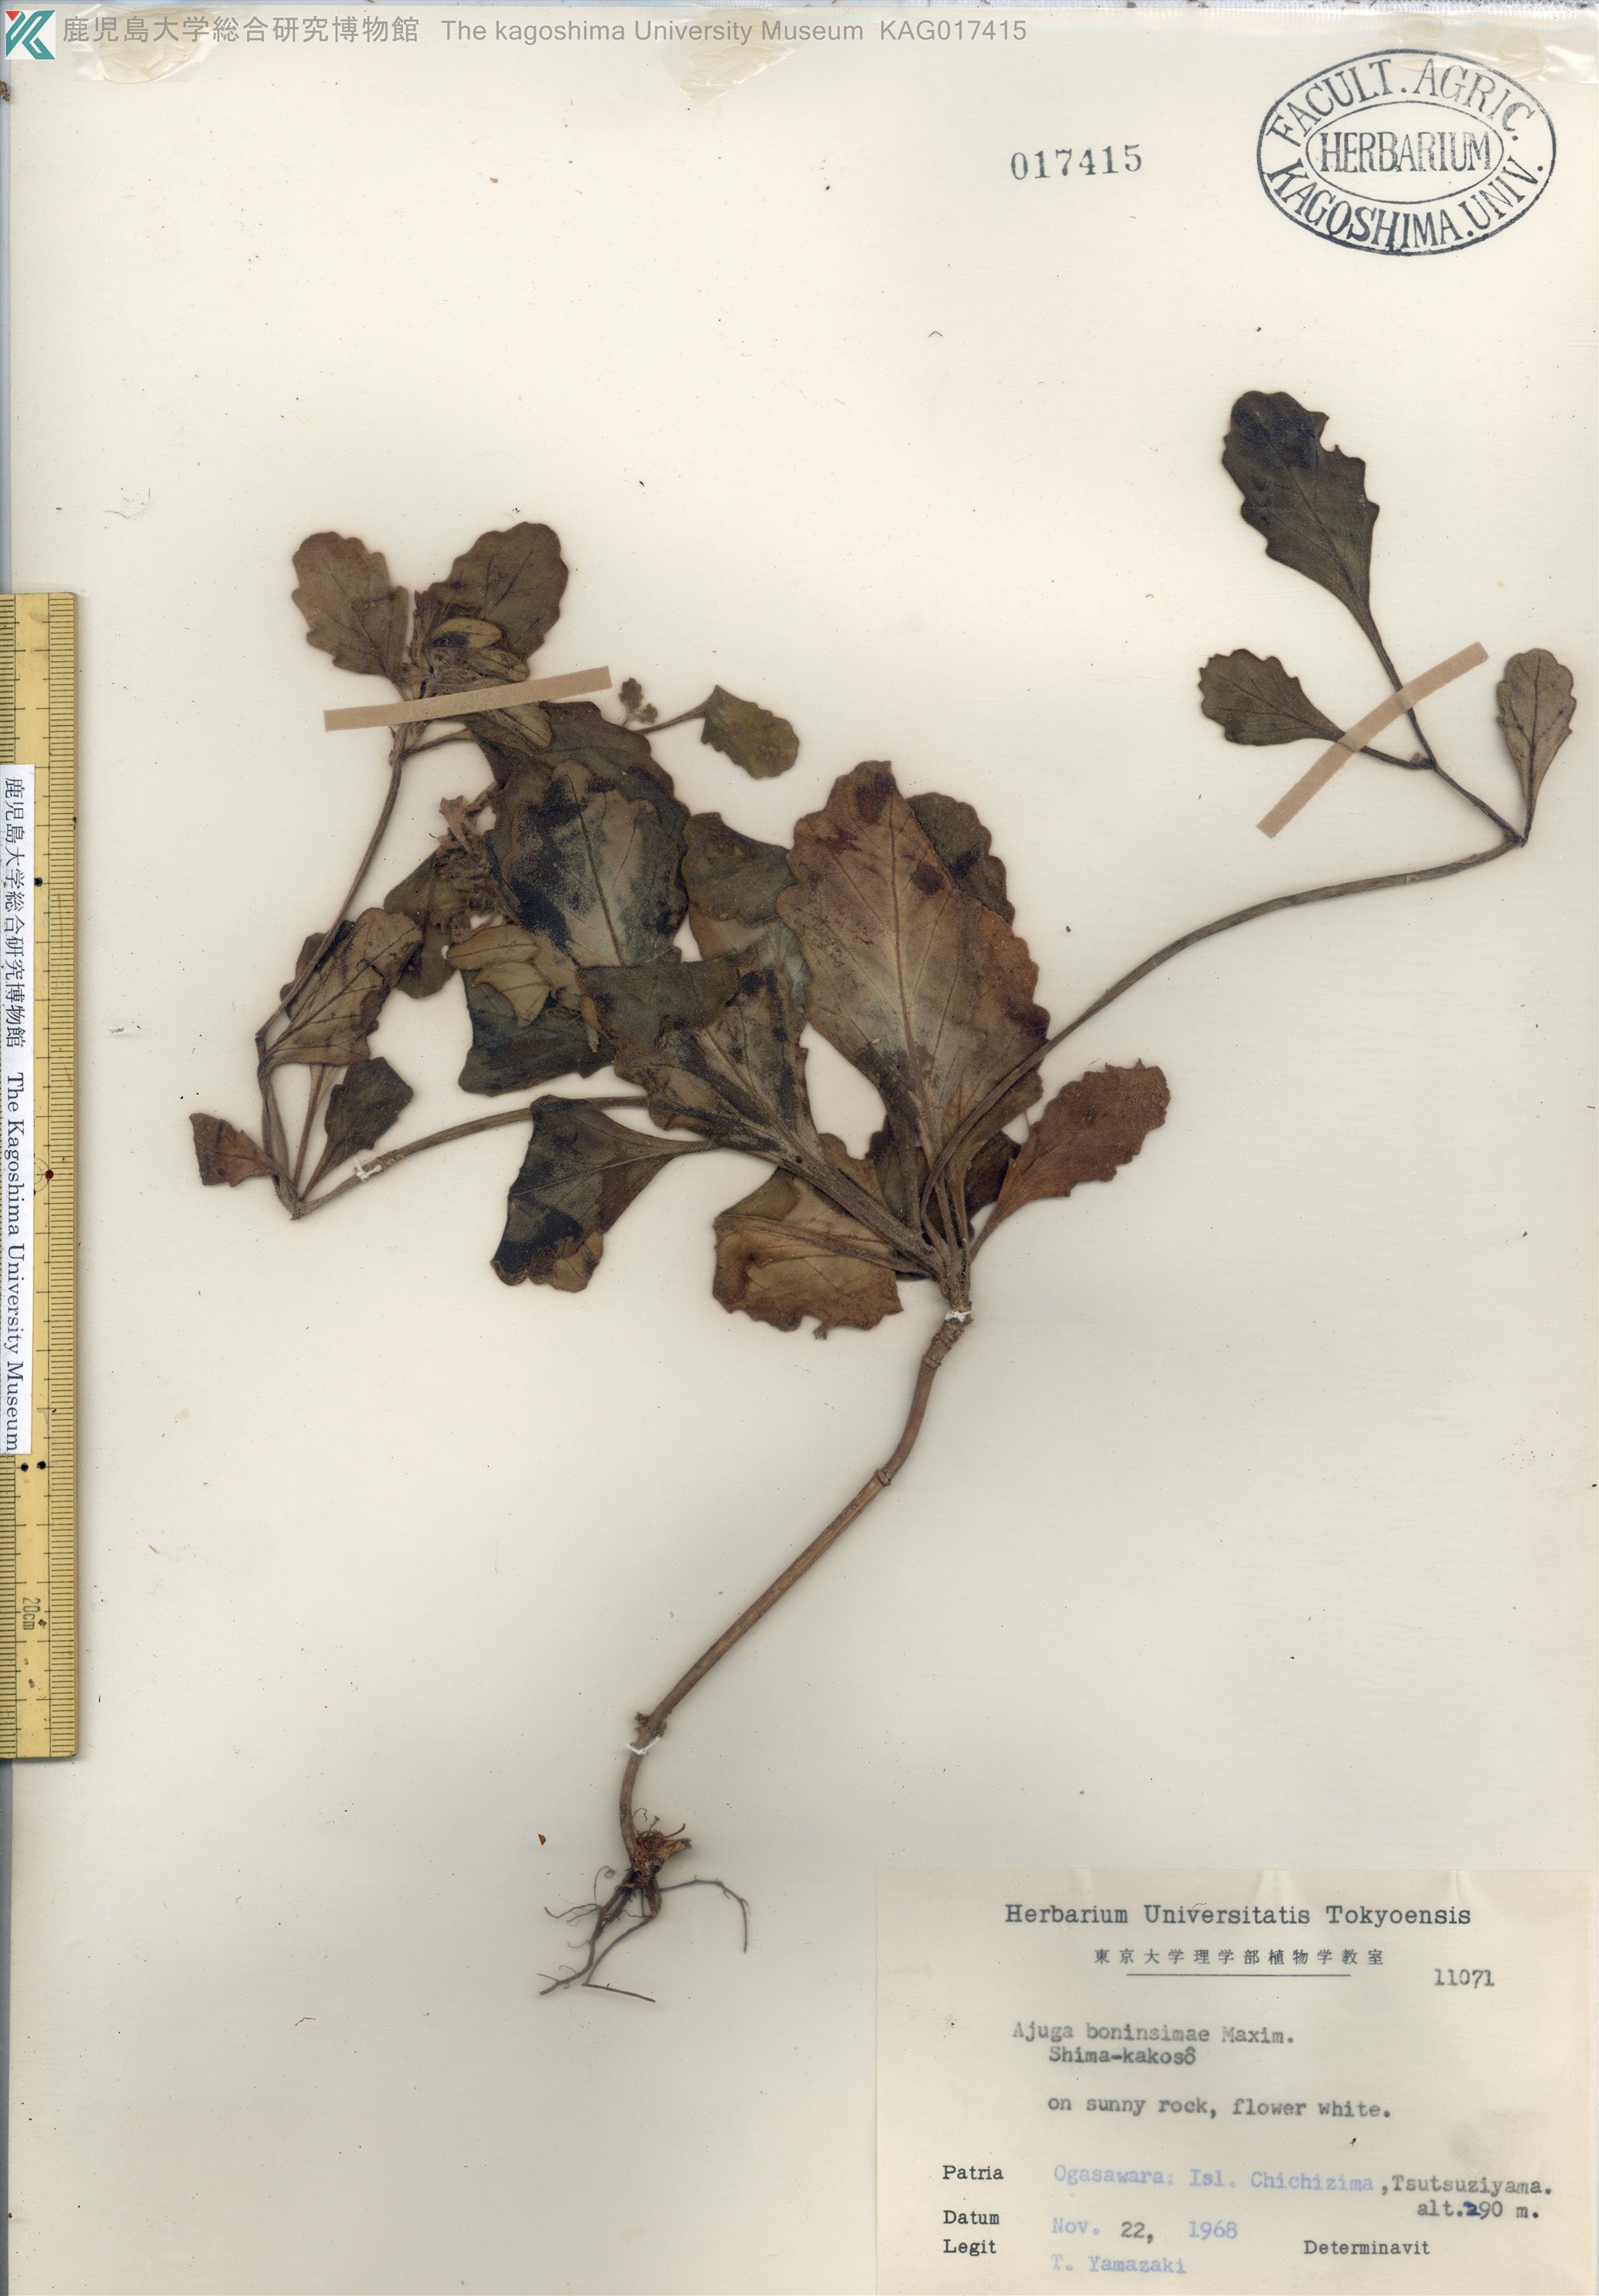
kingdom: Plantae
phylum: Tracheophyta
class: Magnoliopsida
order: Lamiales
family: Lamiaceae
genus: Ajuga
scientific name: Ajuga boninsimae
